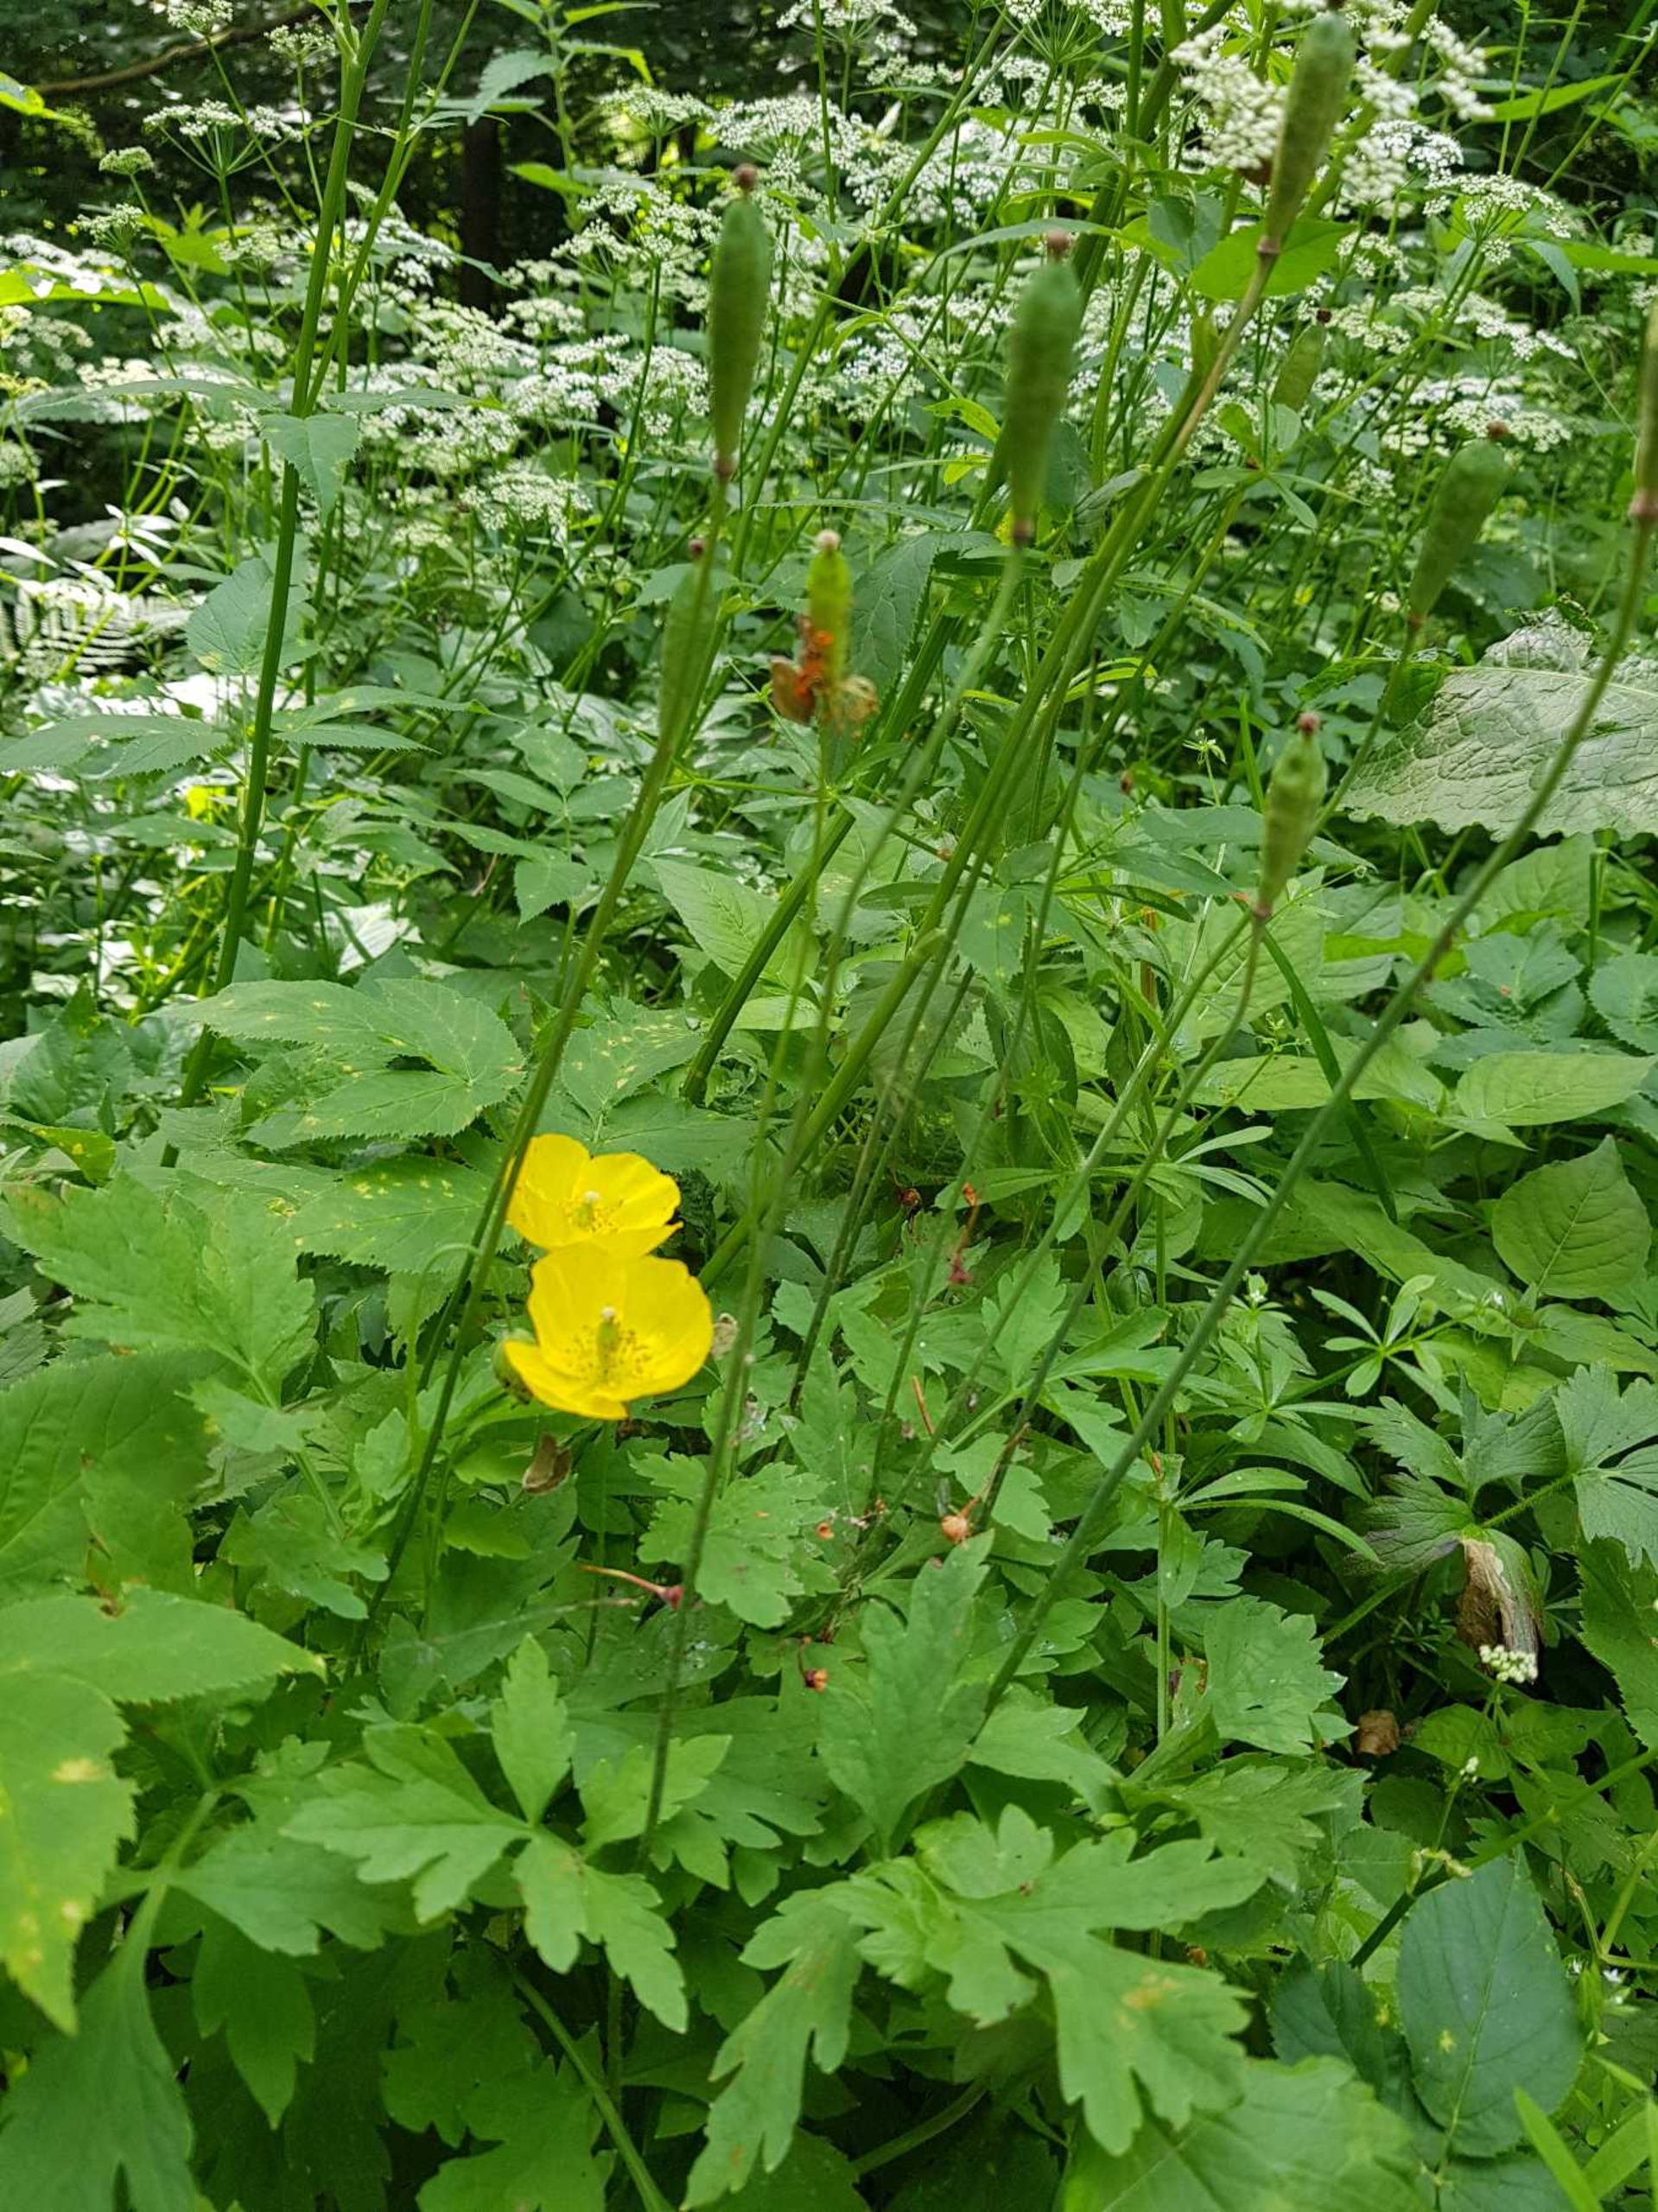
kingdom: Plantae
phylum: Tracheophyta
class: Magnoliopsida
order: Ranunculales
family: Papaveraceae
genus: Papaver
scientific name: Papaver cambricum
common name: Skov-valmue
